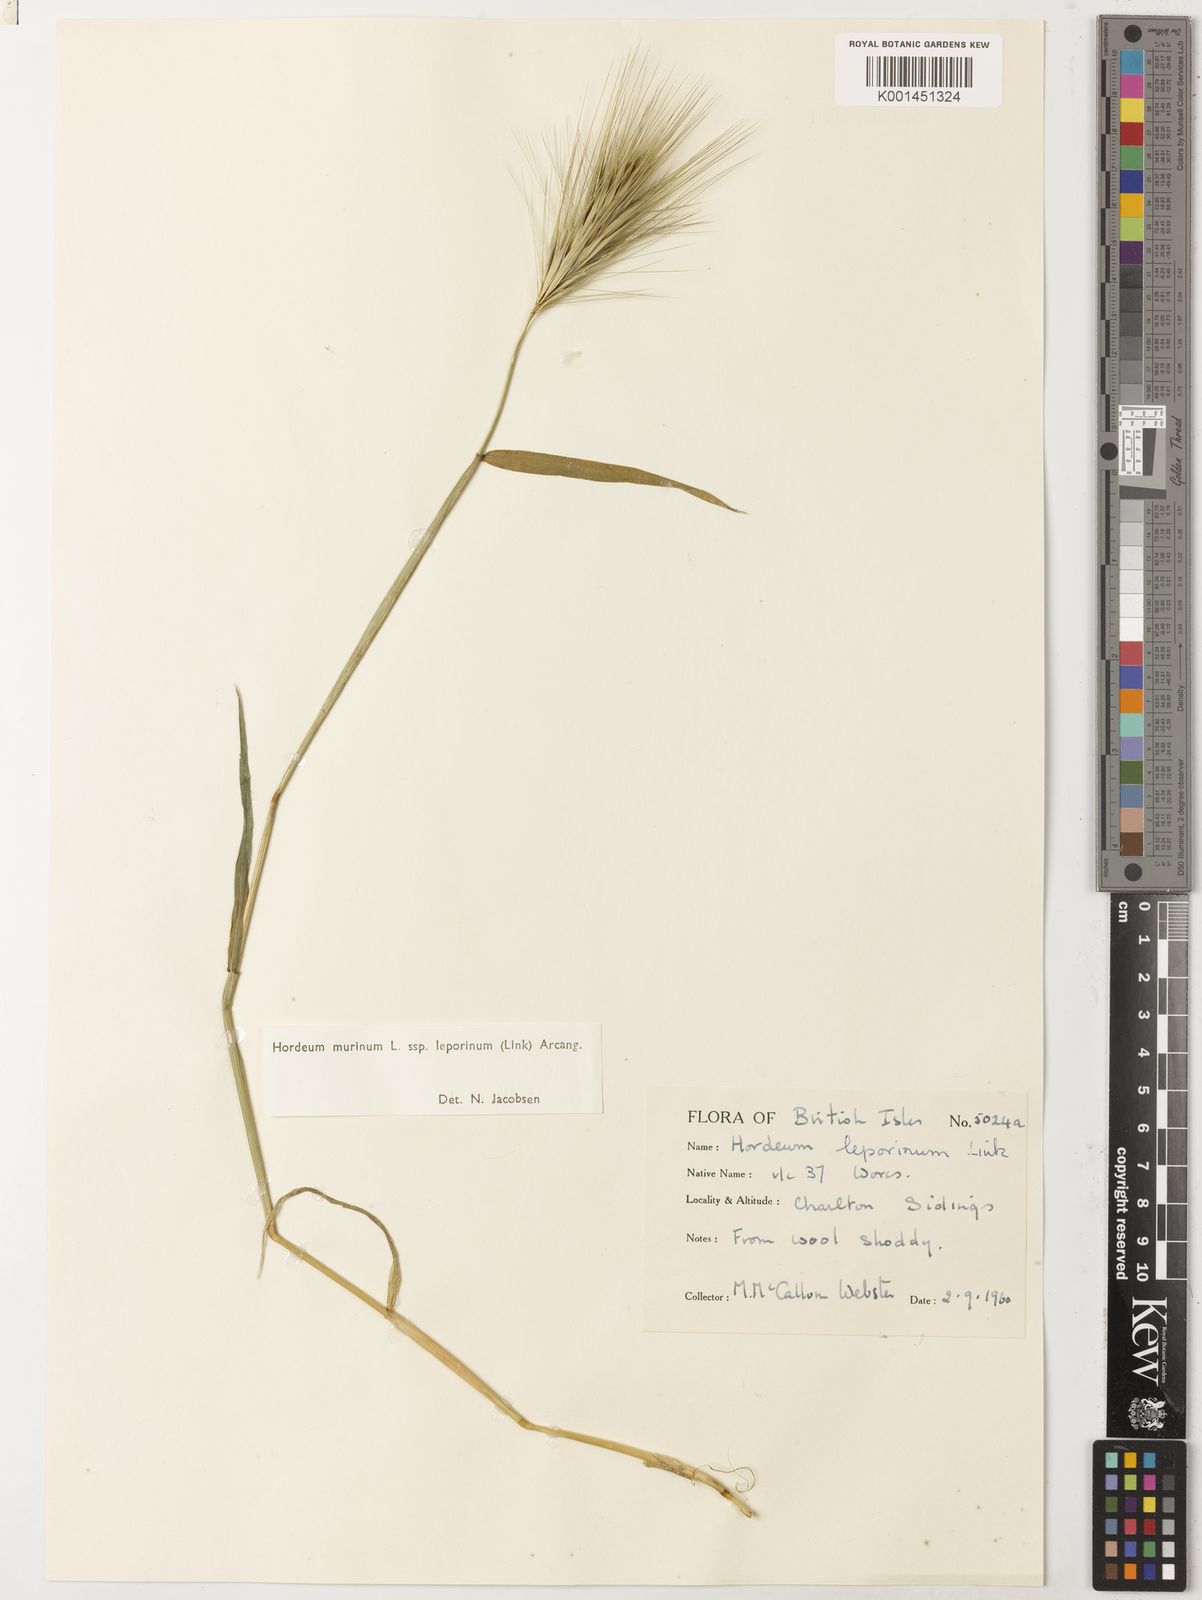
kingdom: Plantae
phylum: Tracheophyta
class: Liliopsida
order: Poales
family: Poaceae
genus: Hordeum
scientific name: Hordeum murinum
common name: Wall barley
